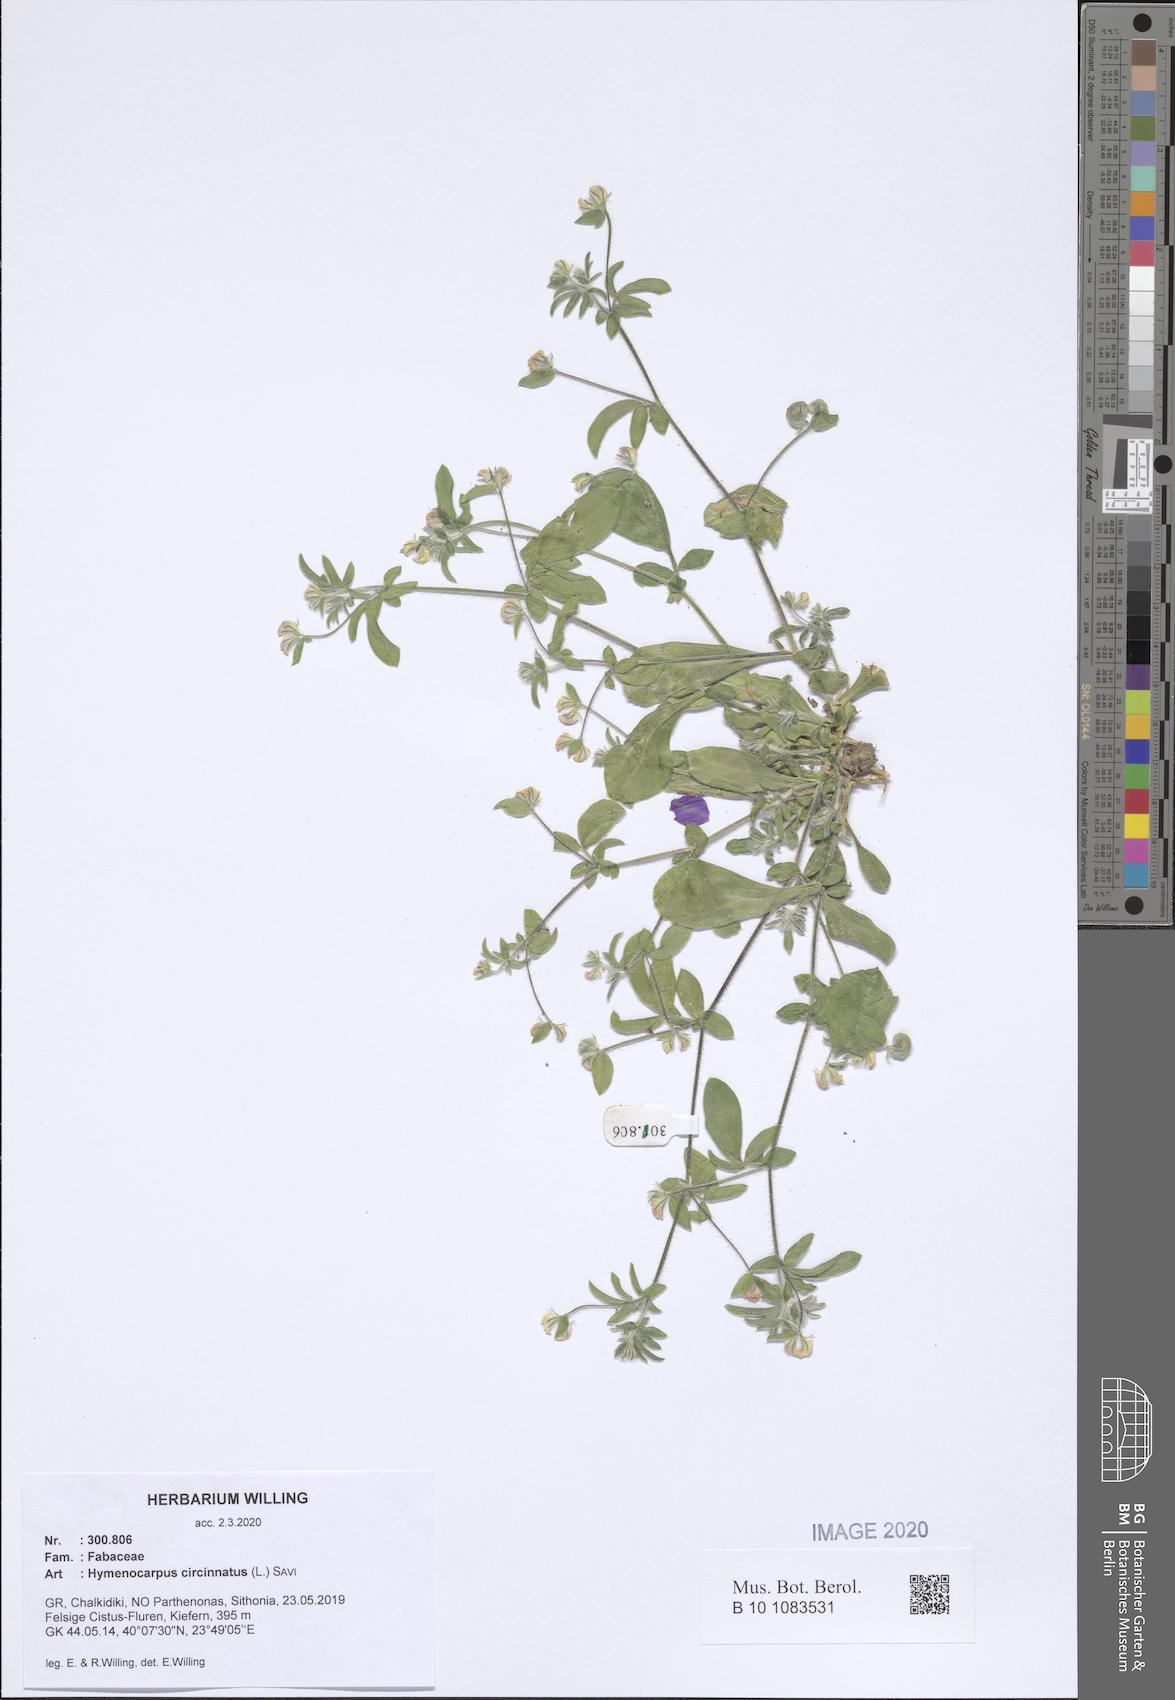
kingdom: Plantae
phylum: Tracheophyta
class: Magnoliopsida
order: Fabales
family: Fabaceae
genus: Anthyllis
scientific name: Anthyllis circinnata
